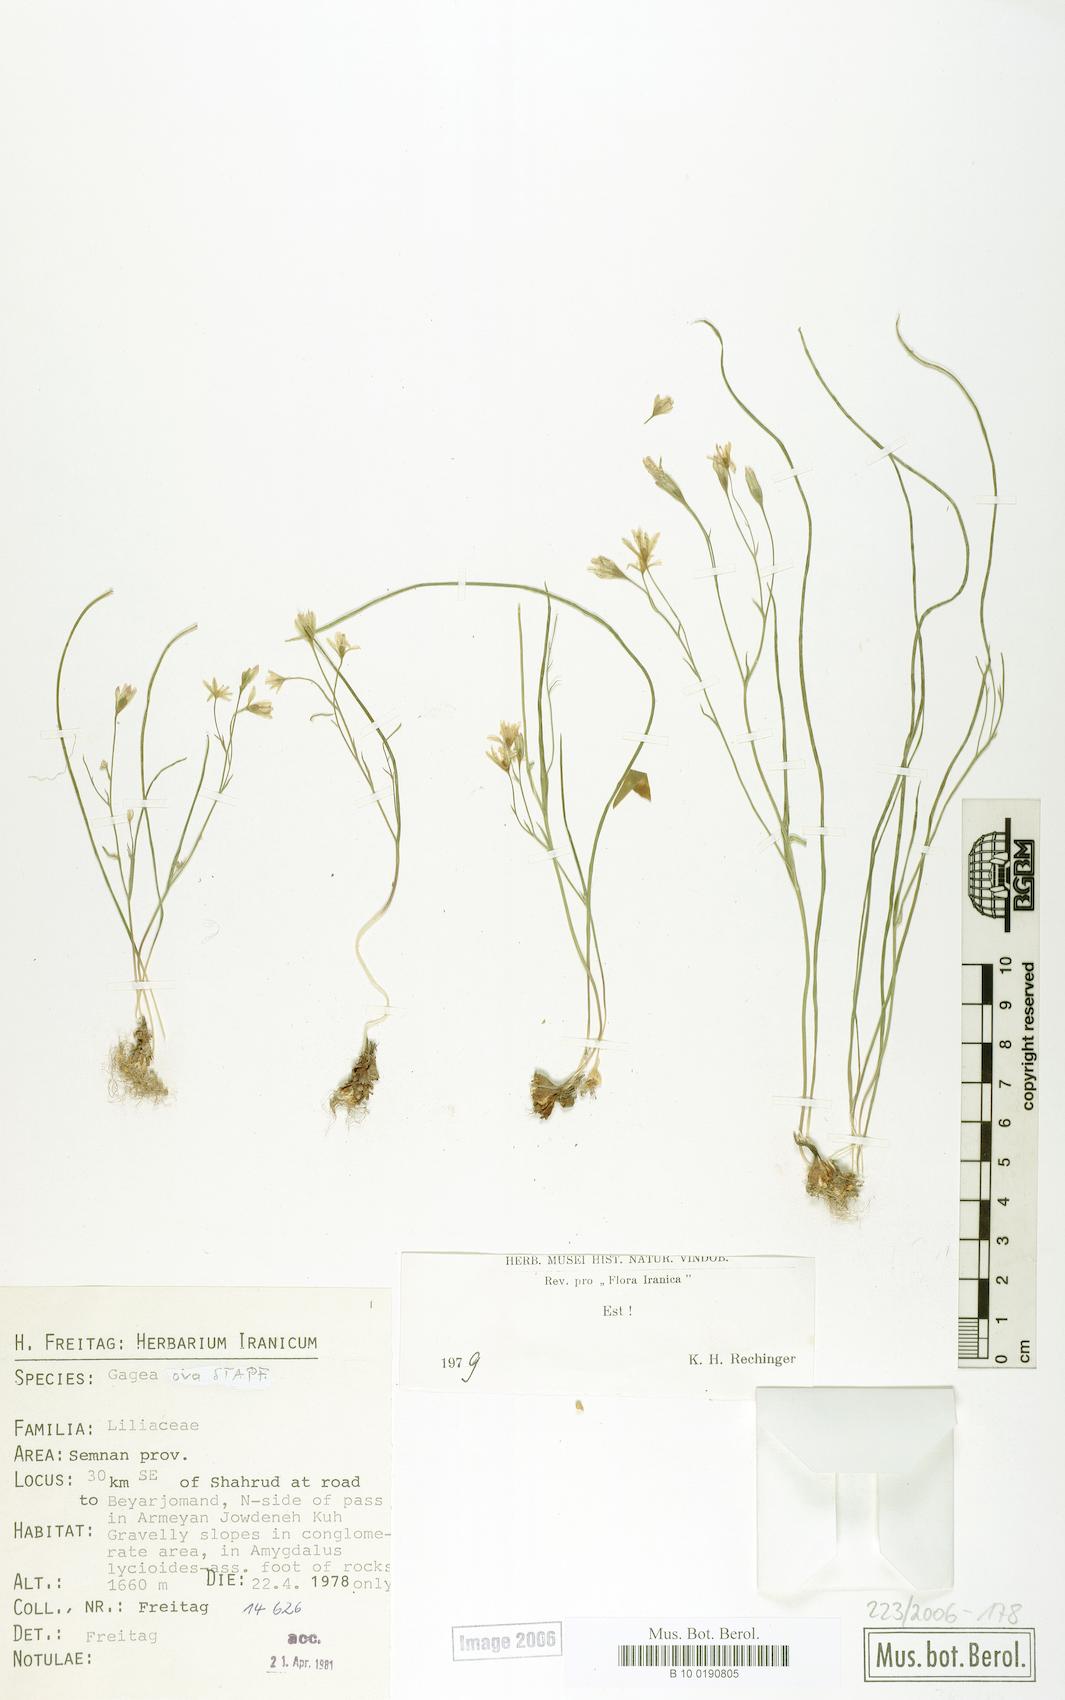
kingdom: Plantae
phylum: Tracheophyta
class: Liliopsida
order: Liliales
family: Liliaceae
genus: Gagea
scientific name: Gagea kunawurensis
